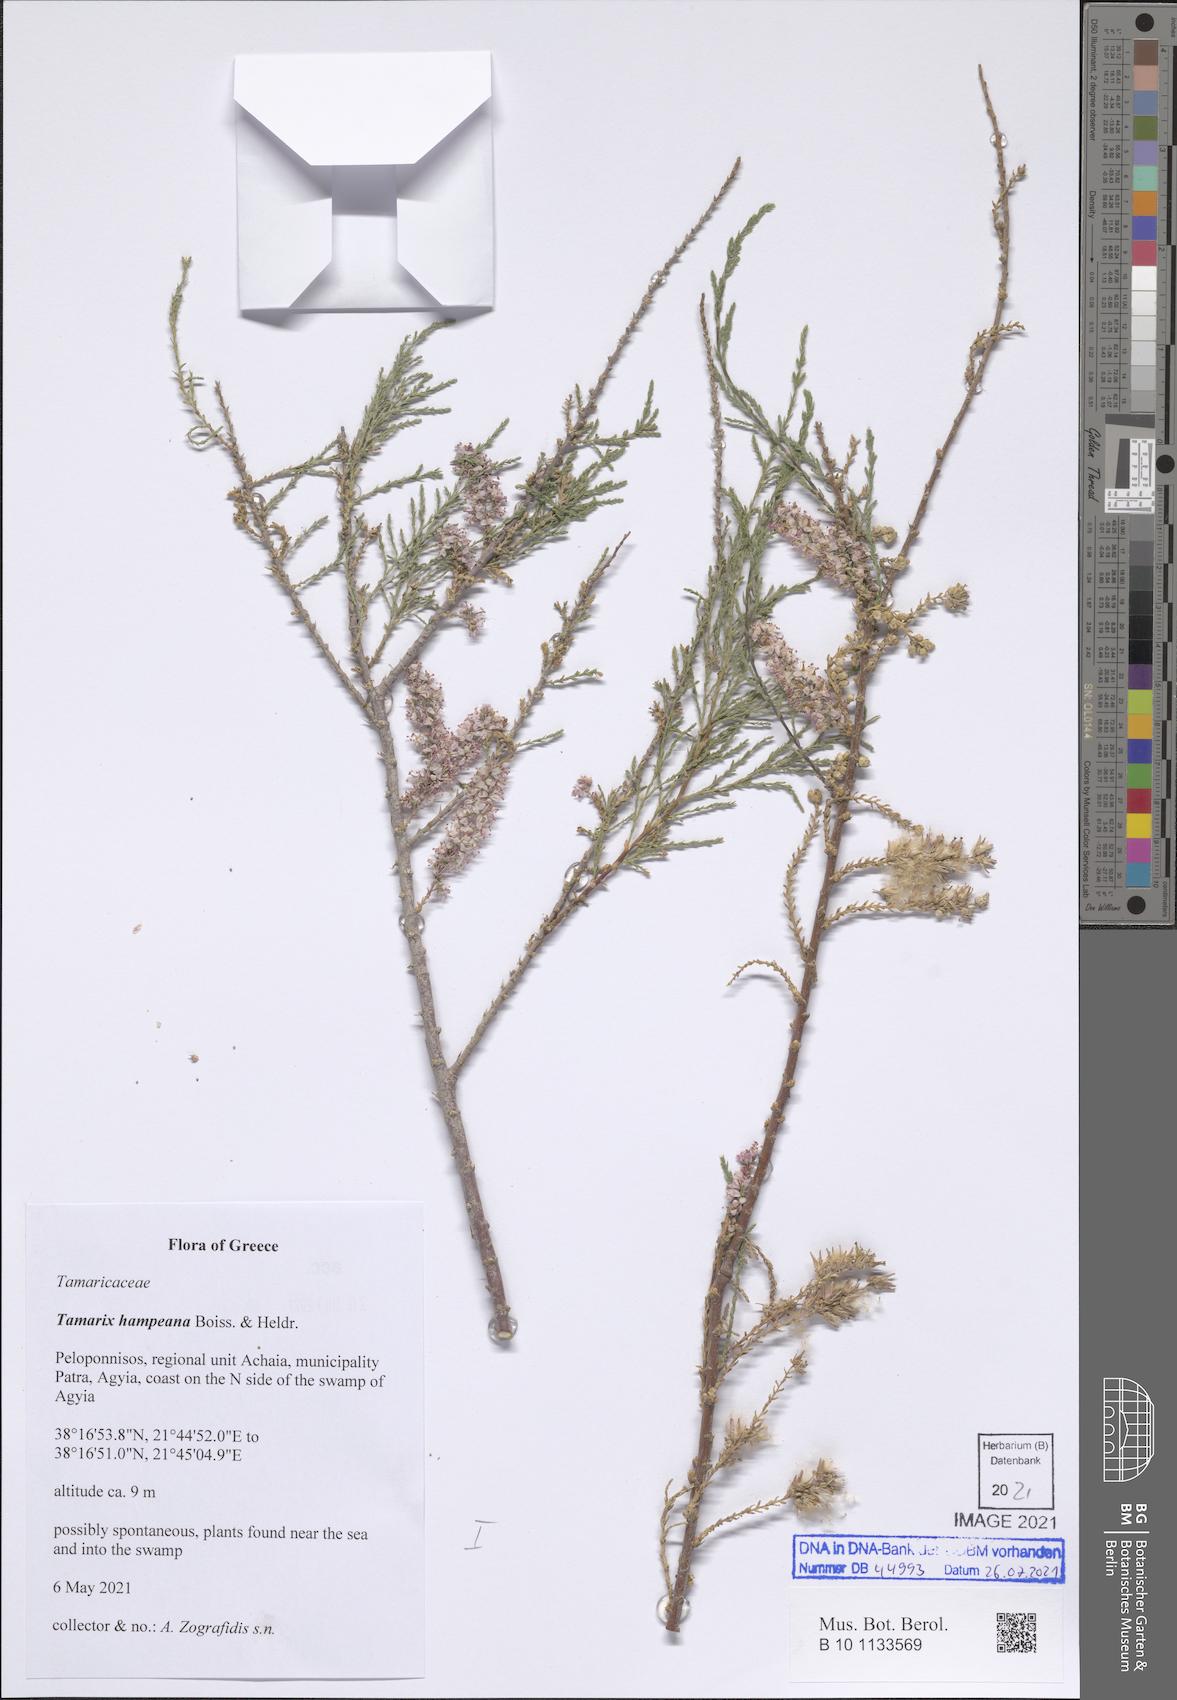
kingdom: Plantae
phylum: Tracheophyta
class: Magnoliopsida
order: Caryophyllales
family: Tamaricaceae
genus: Tamarix
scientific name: Tamarix hampeana
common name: Hampe’s tamarisk
